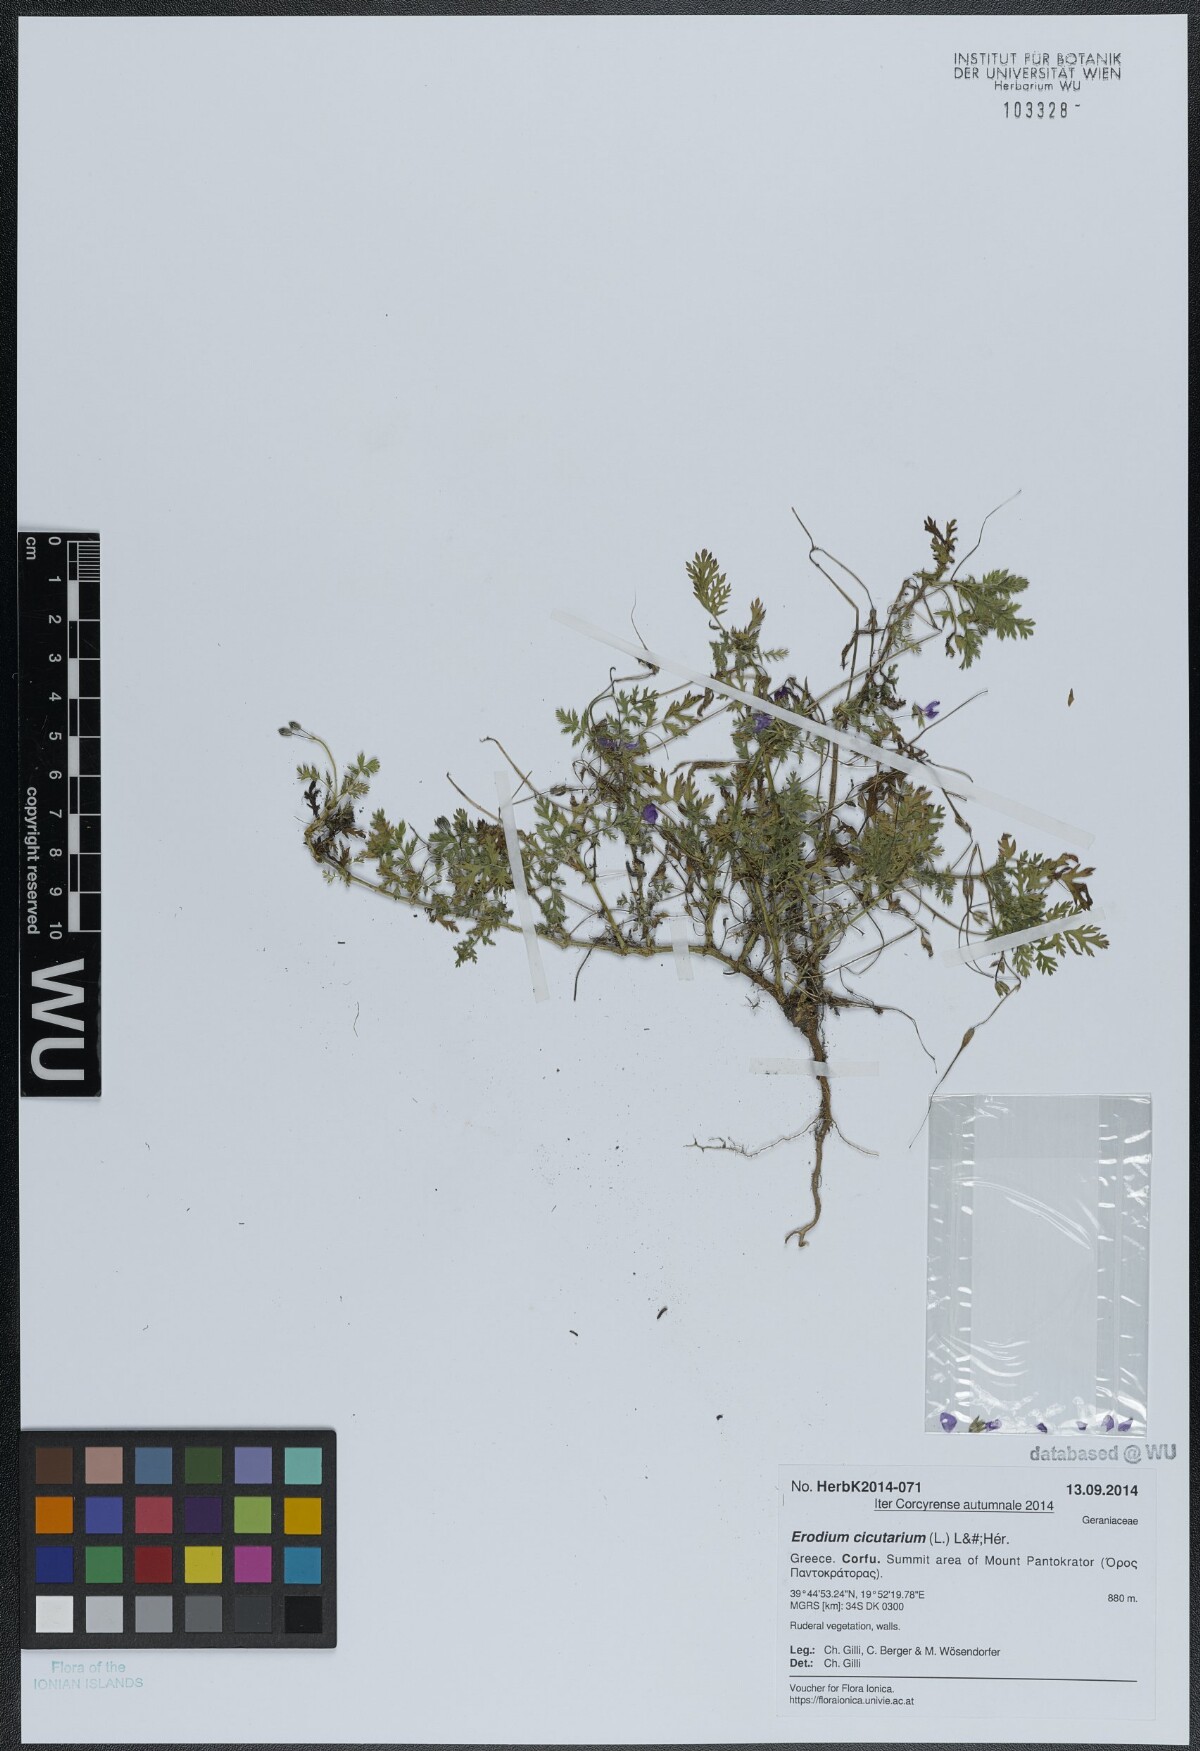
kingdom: Plantae
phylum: Tracheophyta
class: Magnoliopsida
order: Geraniales
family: Geraniaceae
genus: Erodium
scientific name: Erodium cicutarium
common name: Common stork's-bill
